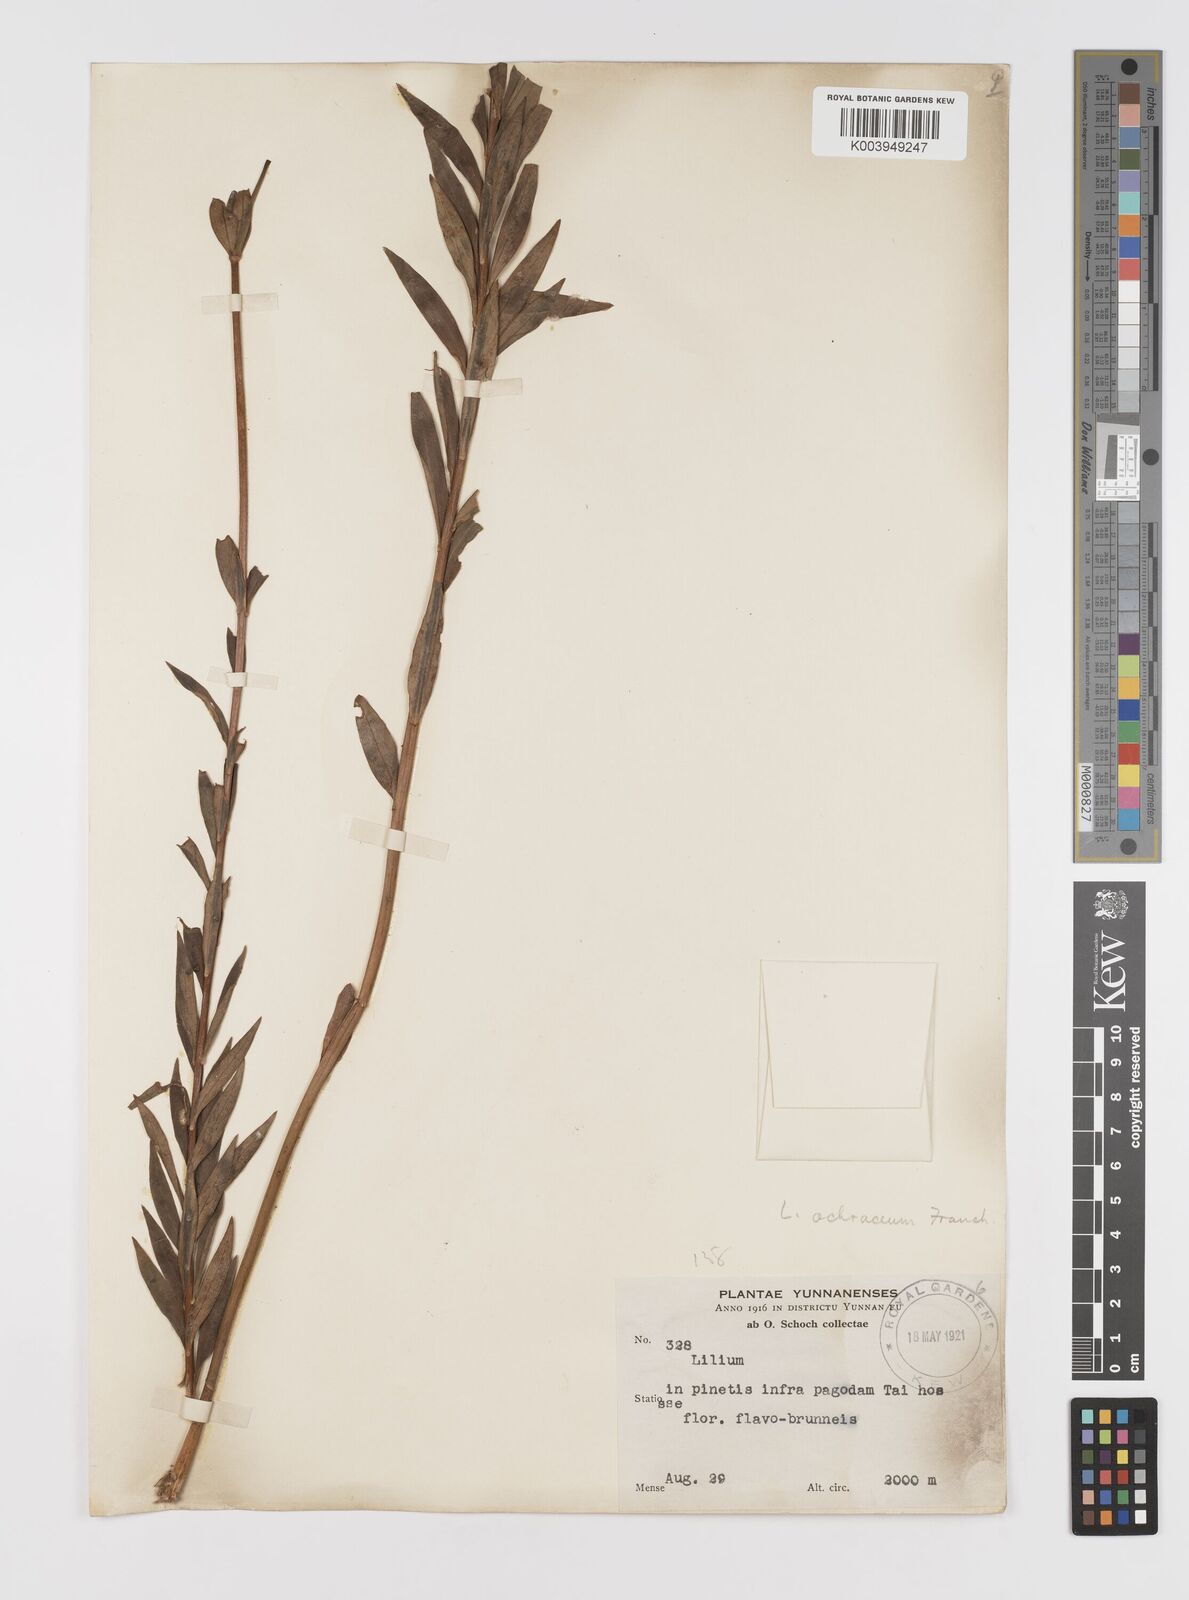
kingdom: Plantae
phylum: Tracheophyta
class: Liliopsida
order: Liliales
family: Liliaceae
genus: Lilium
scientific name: Lilium primulinum
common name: Ochre lily
